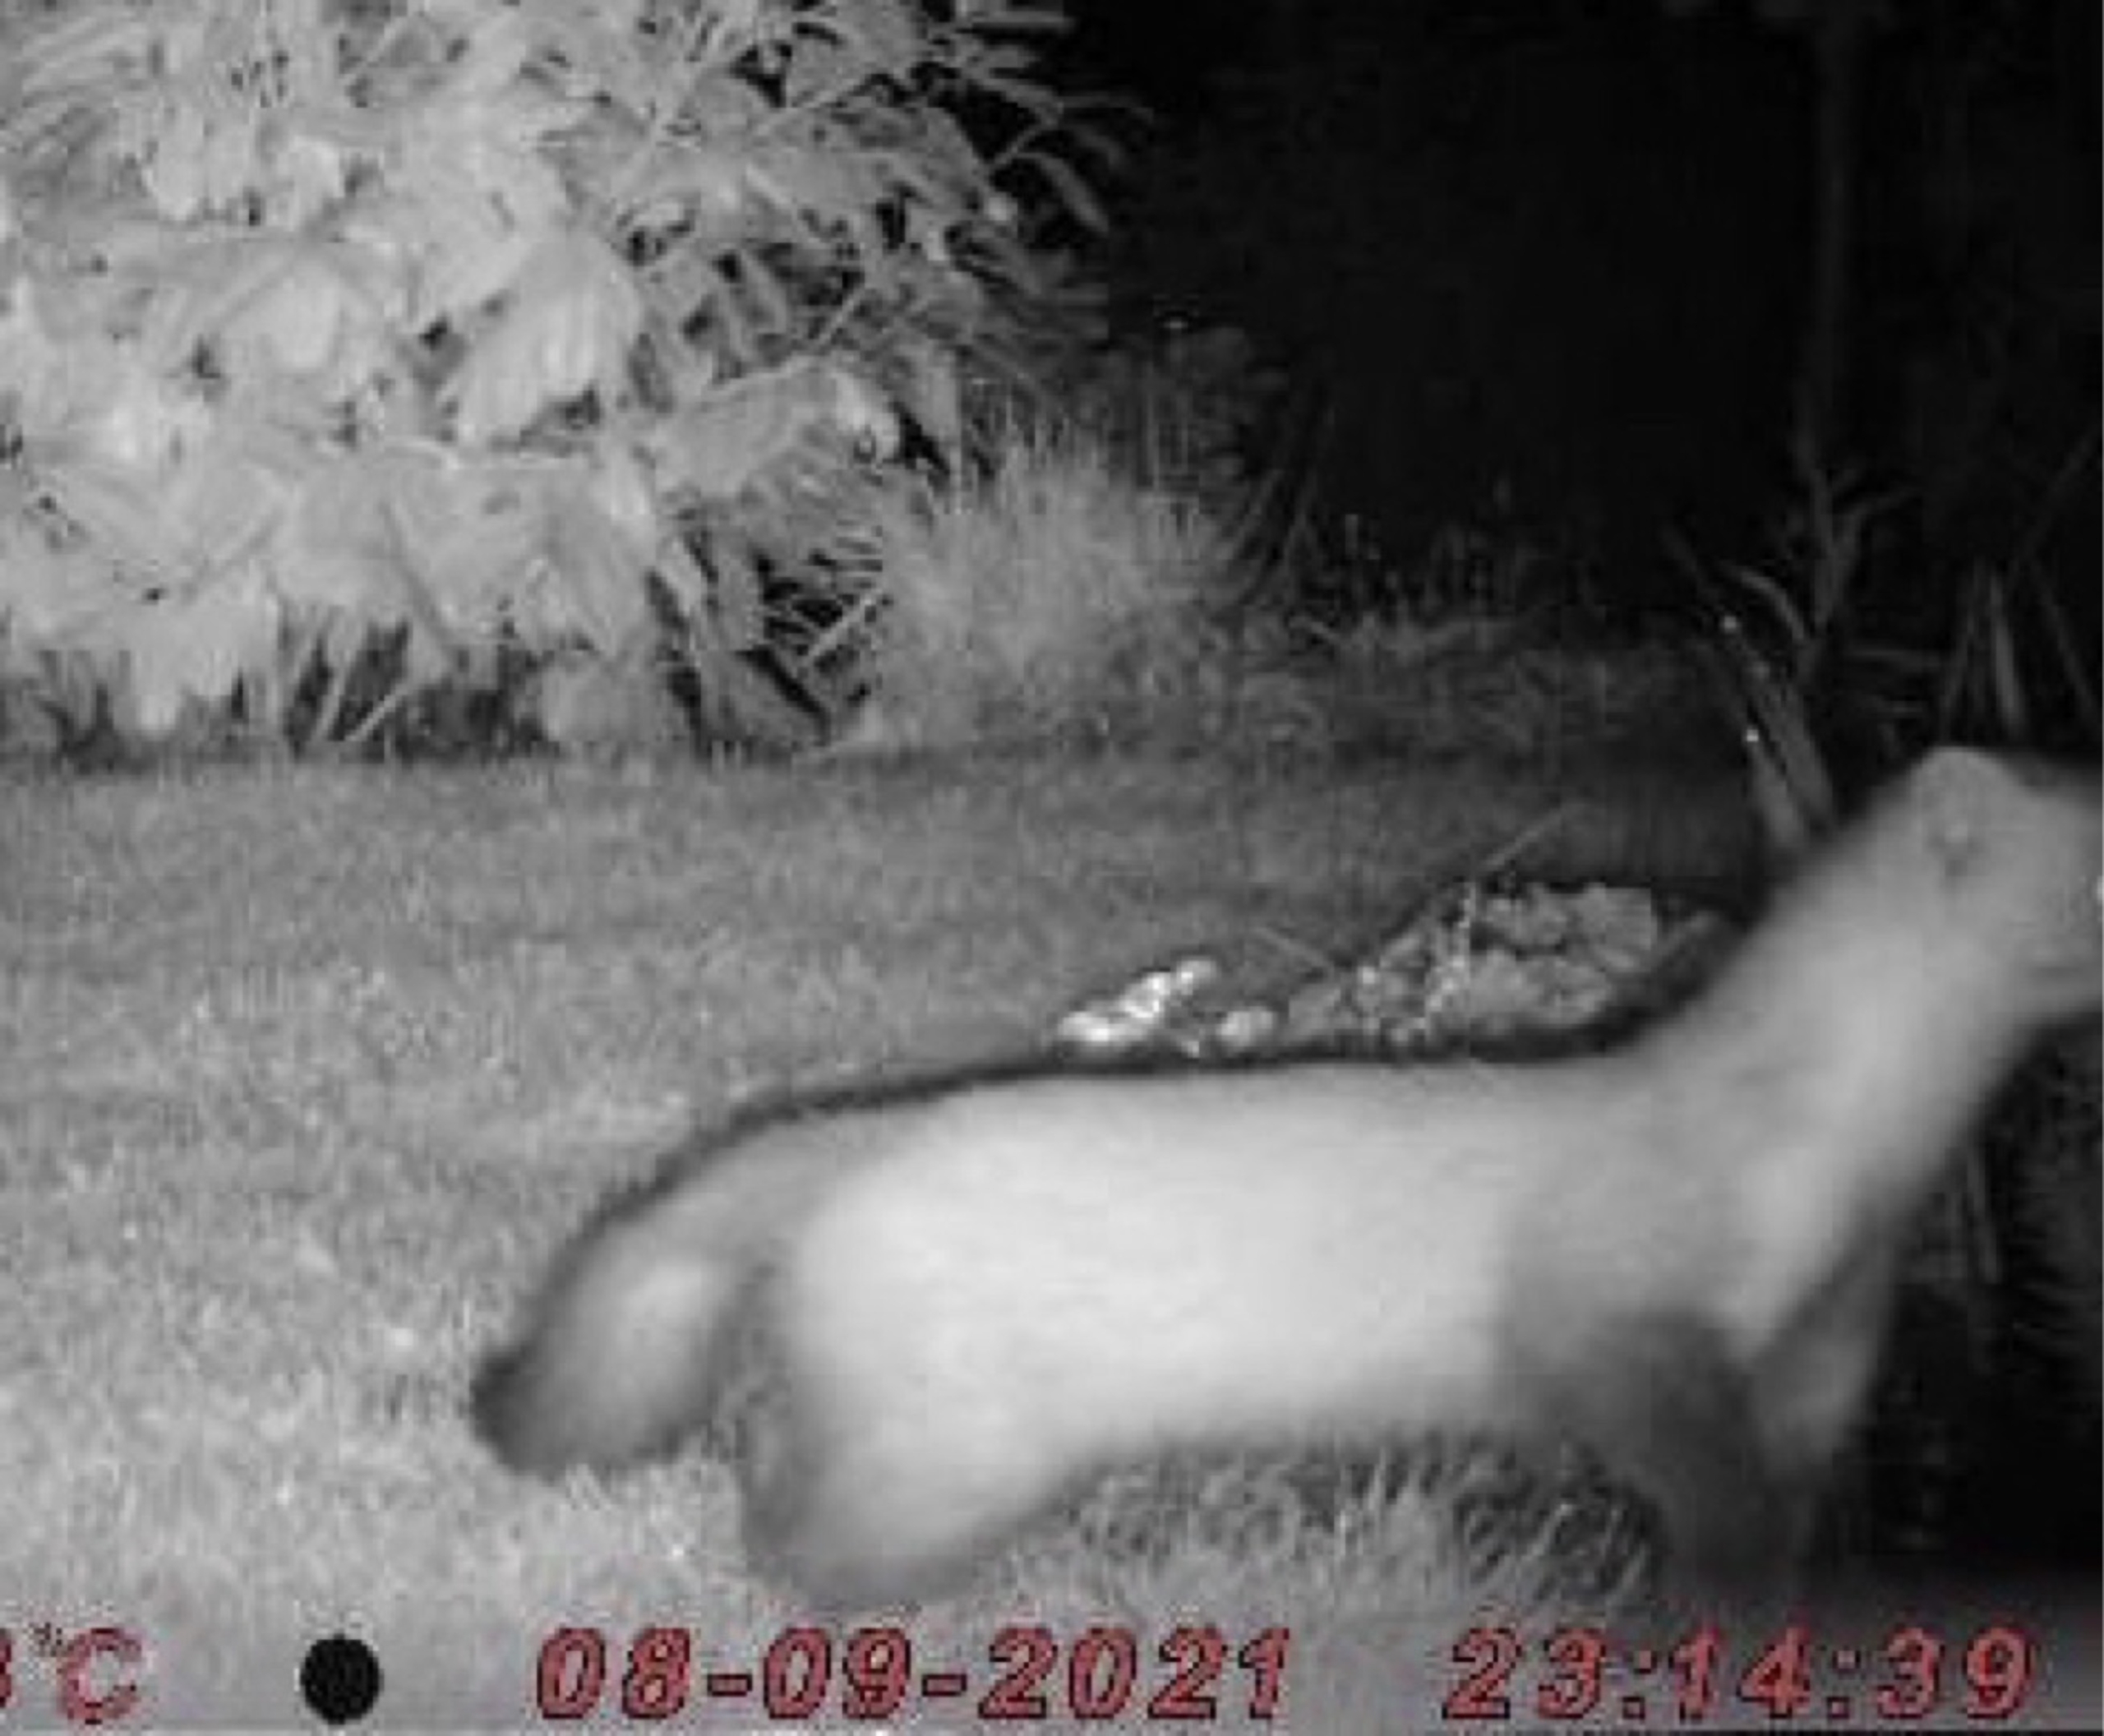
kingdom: Animalia
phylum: Chordata
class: Mammalia
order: Carnivora
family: Mustelidae
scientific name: Mustelidae
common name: Mårer
